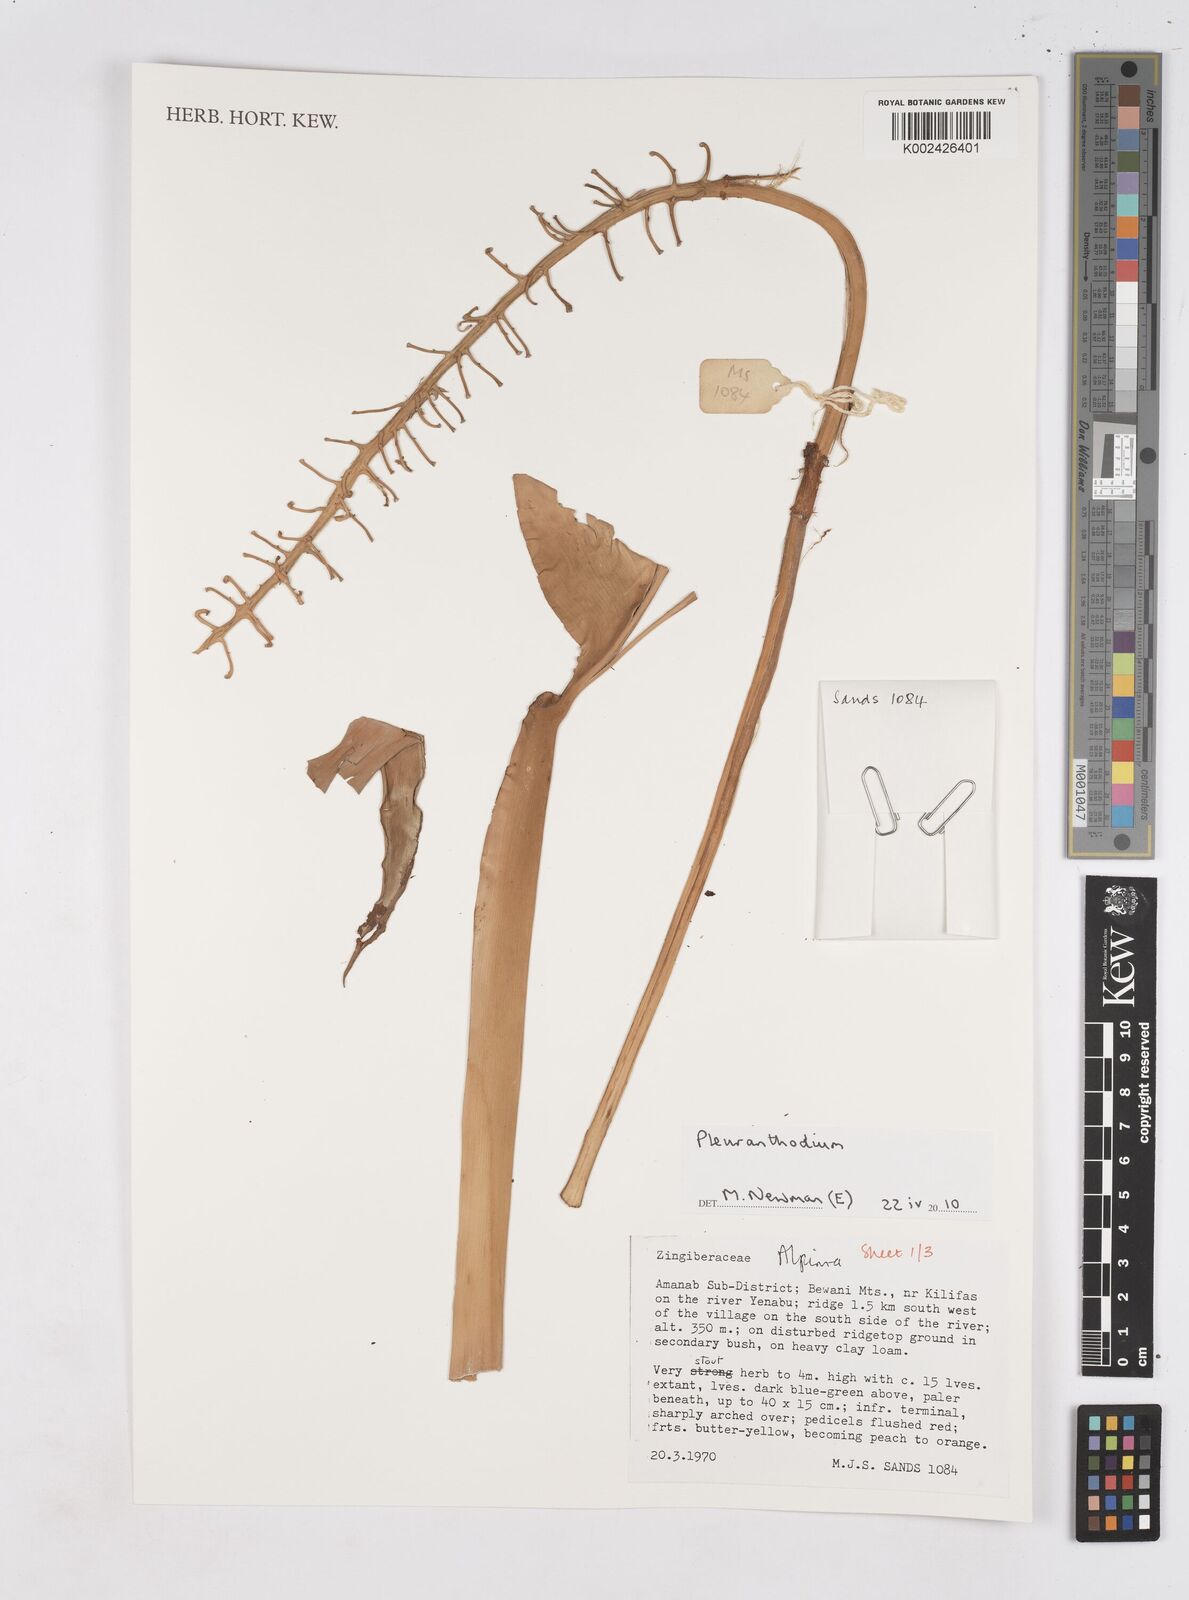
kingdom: Plantae
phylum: Tracheophyta
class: Liliopsida
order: Zingiberales
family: Zingiberaceae
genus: Pleuranthodium
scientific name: Pleuranthodium
